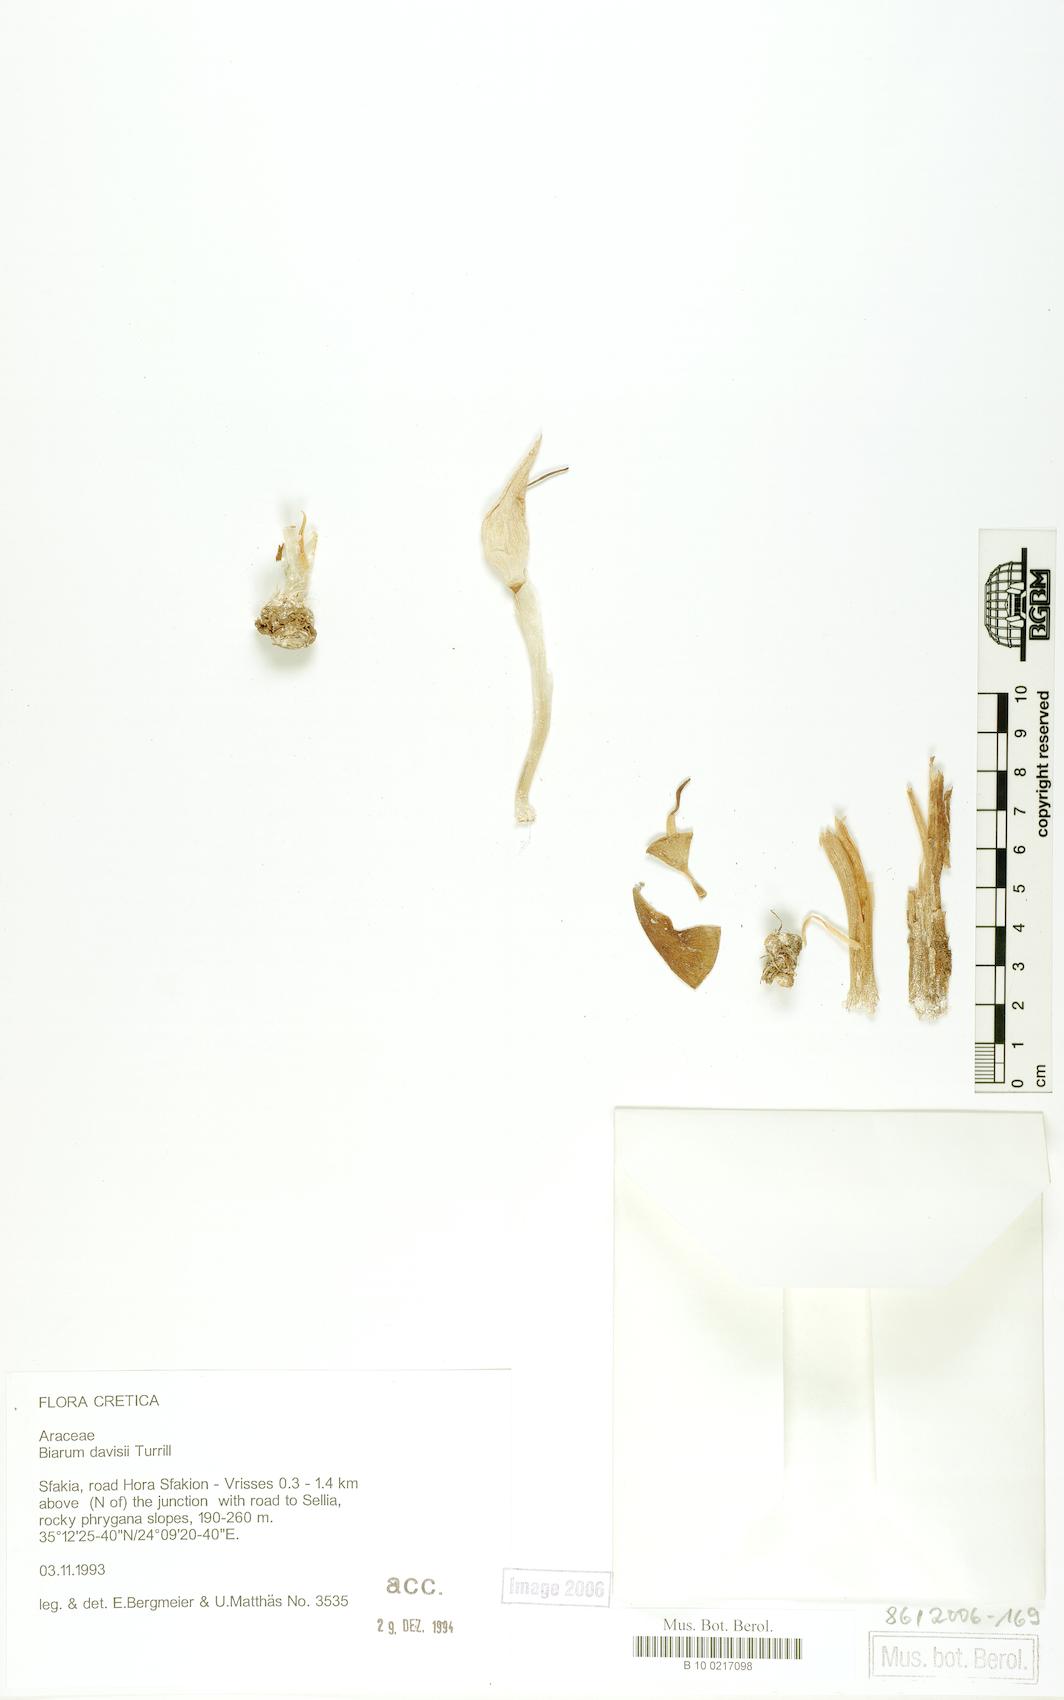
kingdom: Plantae
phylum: Tracheophyta
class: Liliopsida
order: Alismatales
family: Araceae
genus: Biarum
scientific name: Biarum davisii
